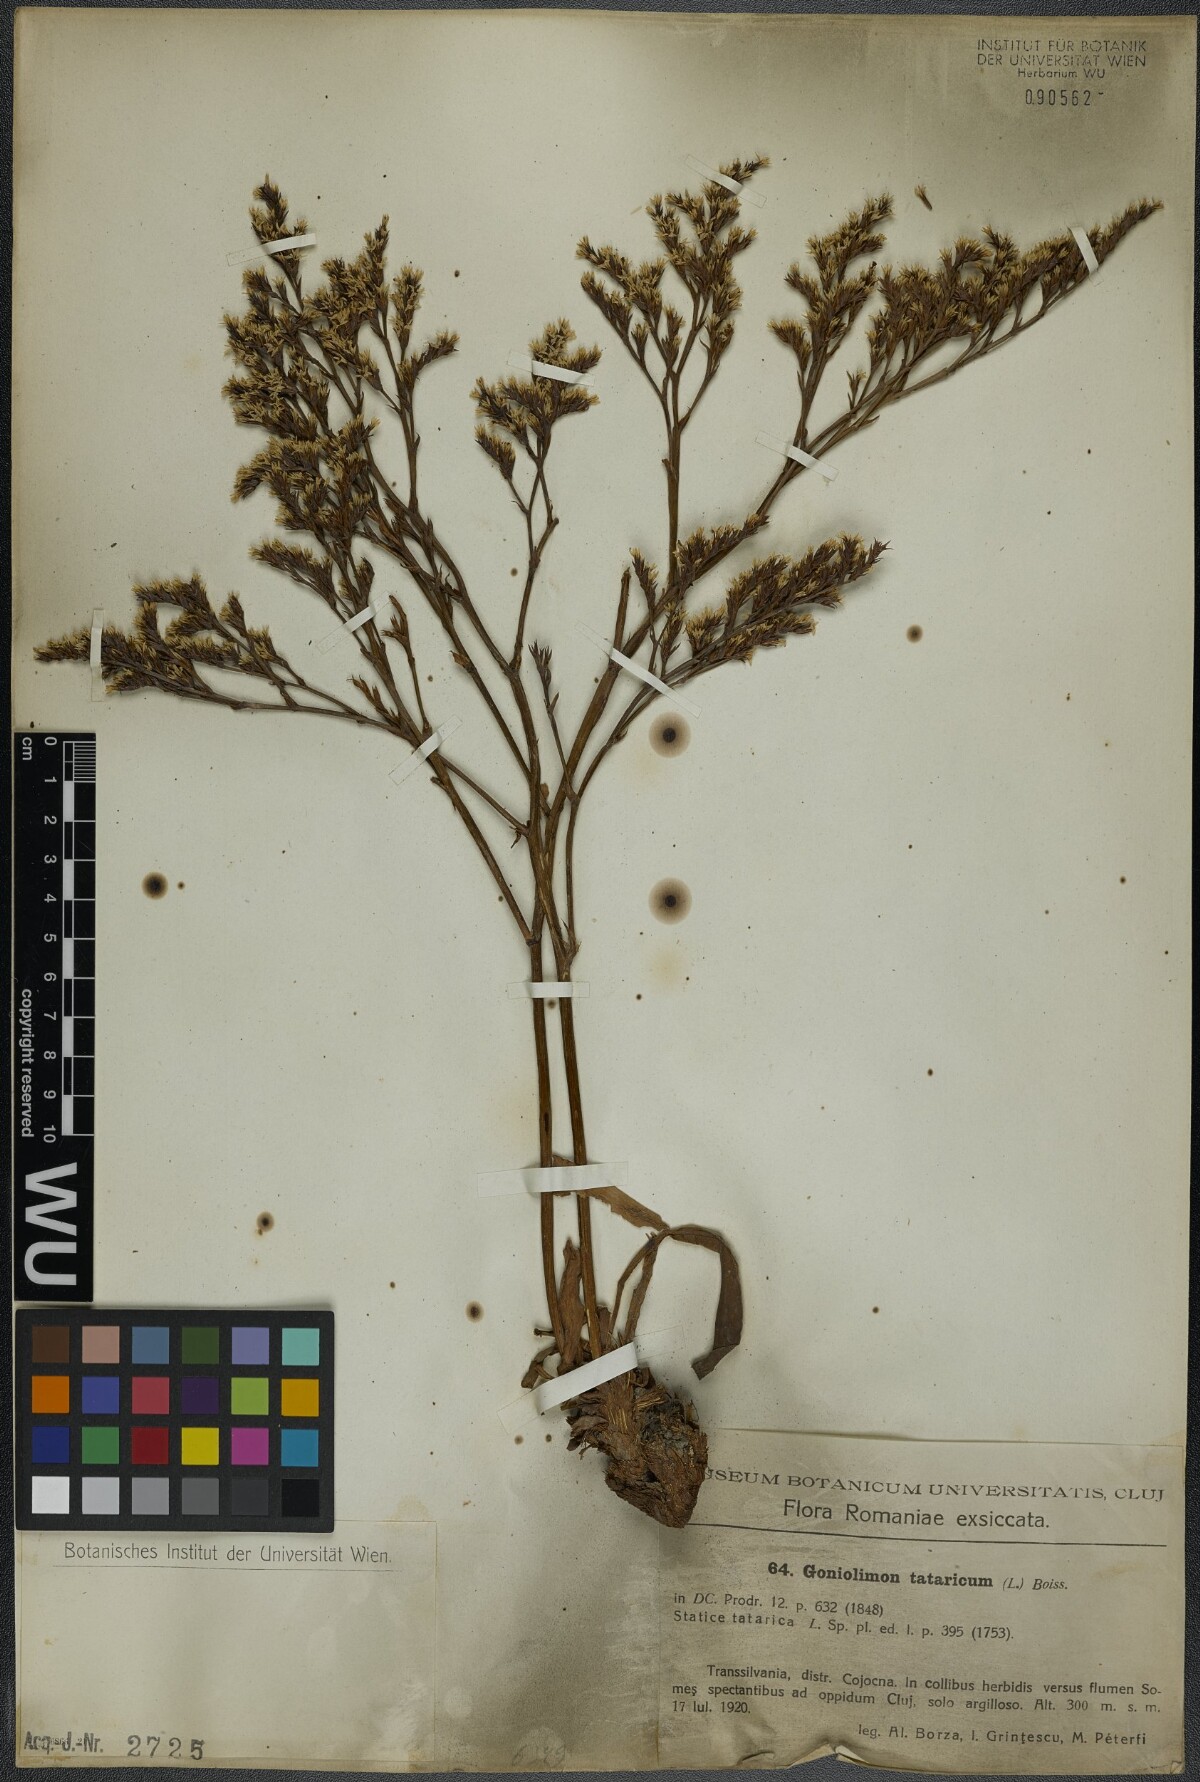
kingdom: Plantae
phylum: Tracheophyta
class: Magnoliopsida
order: Caryophyllales
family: Plumbaginaceae
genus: Goniolimon
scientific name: Goniolimon tataricum
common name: Statice
